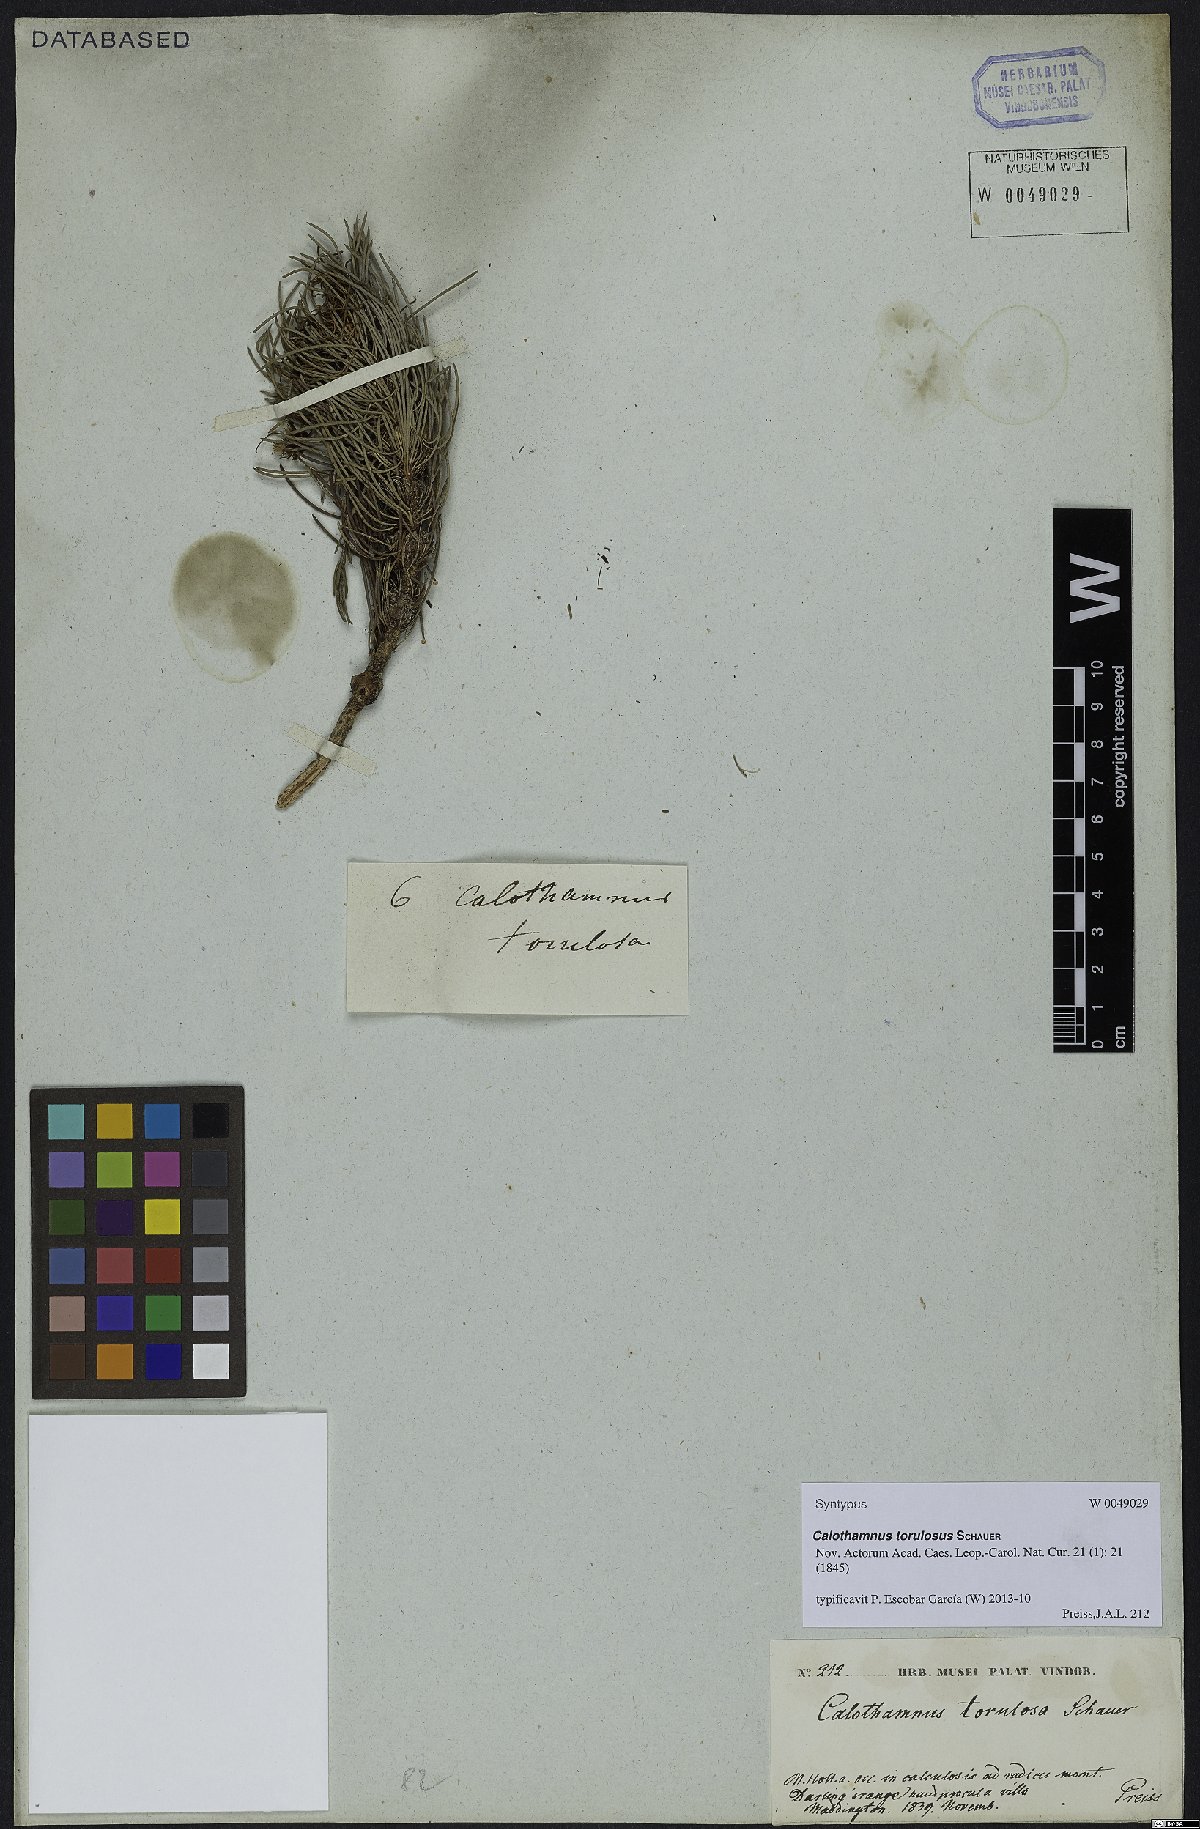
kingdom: Plantae
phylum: Tracheophyta
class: Magnoliopsida
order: Myrtales
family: Myrtaceae
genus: Melaleuca
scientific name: Melaleuca torulosa
